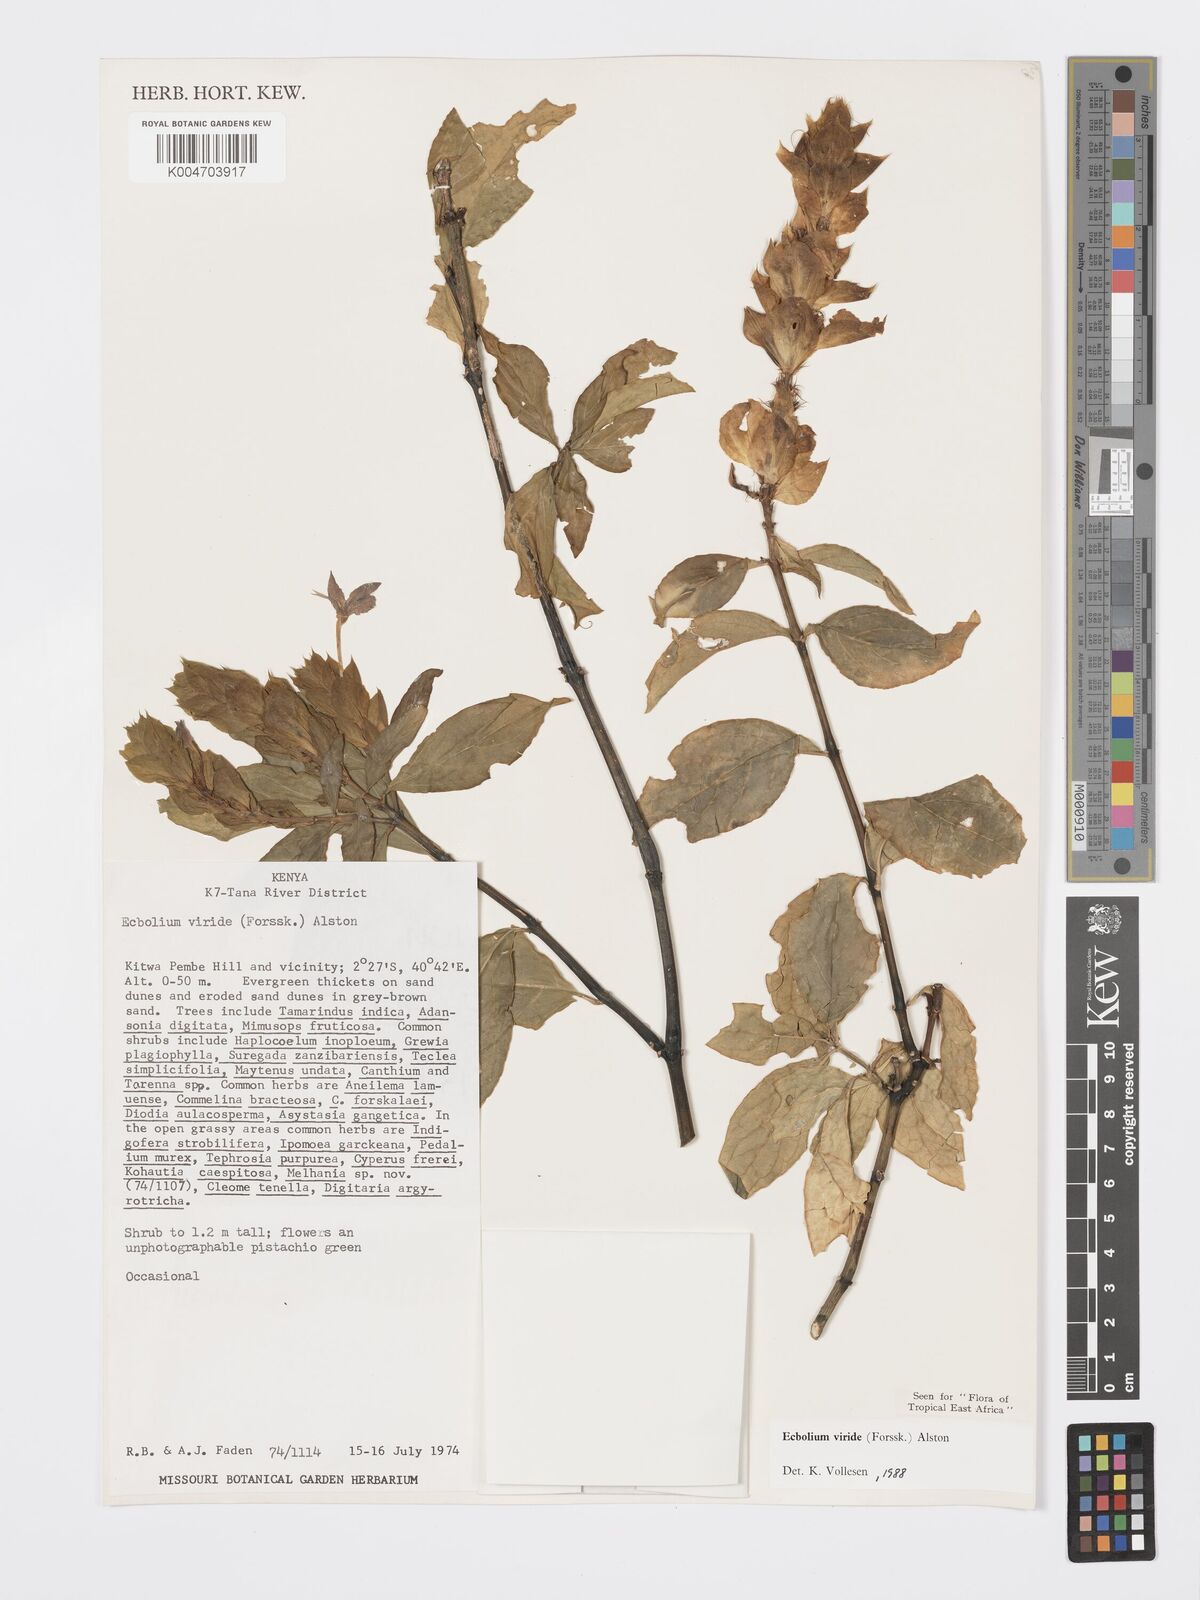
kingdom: Plantae
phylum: Tracheophyta
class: Magnoliopsida
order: Lamiales
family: Acanthaceae
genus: Ecbolium
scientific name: Ecbolium viride
